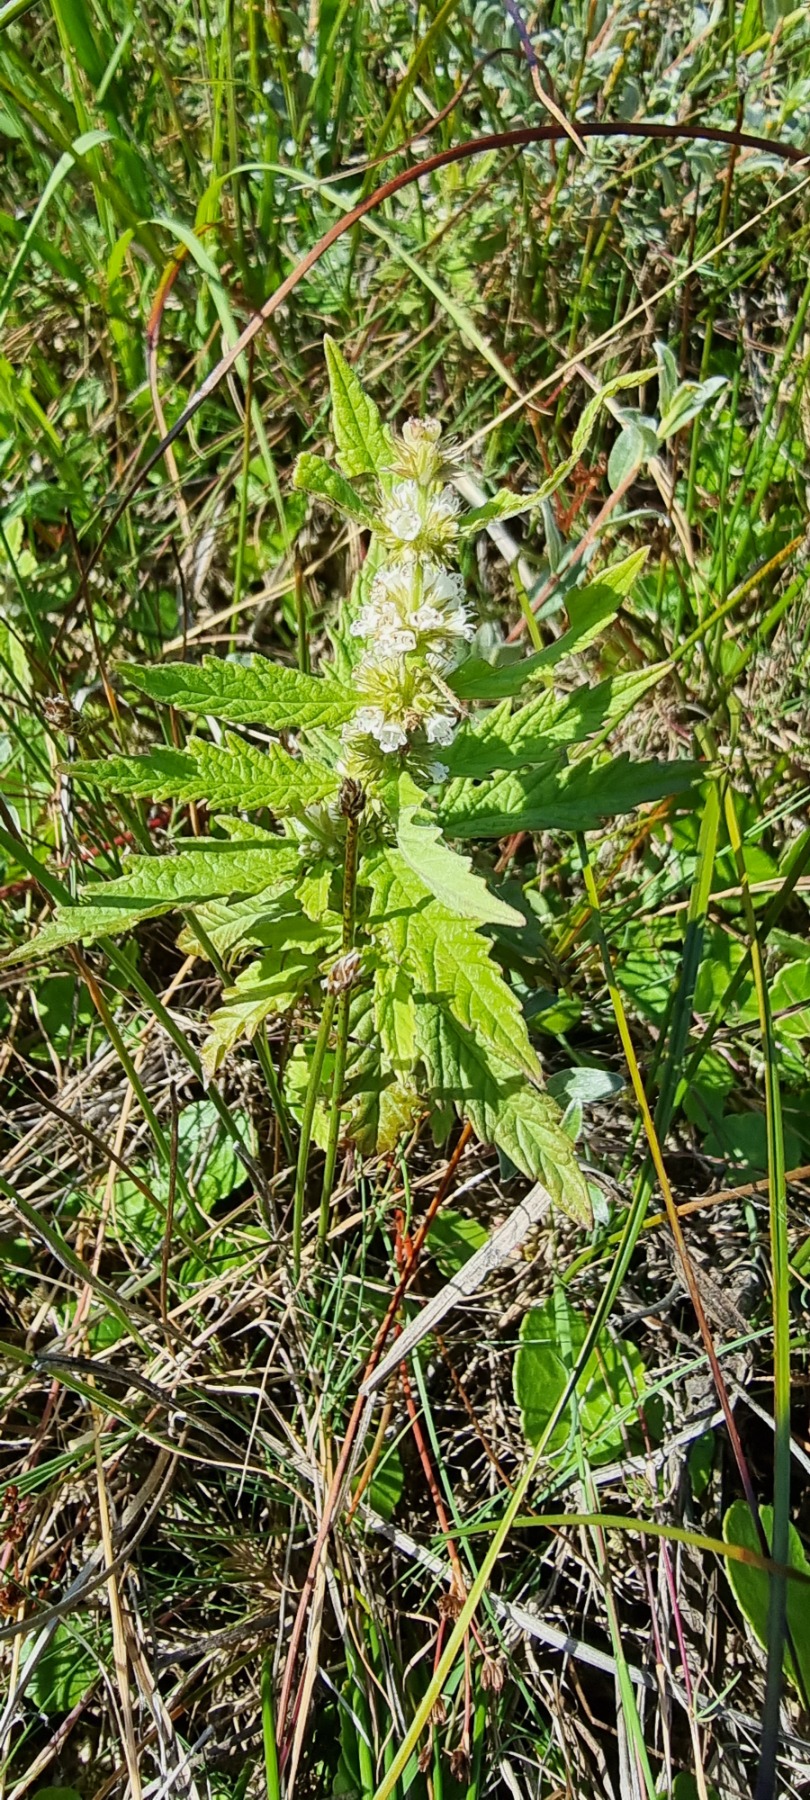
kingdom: Plantae
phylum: Tracheophyta
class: Magnoliopsida
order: Lamiales
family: Lamiaceae
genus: Lycopus
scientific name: Lycopus europaeus
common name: Sværtevæld
